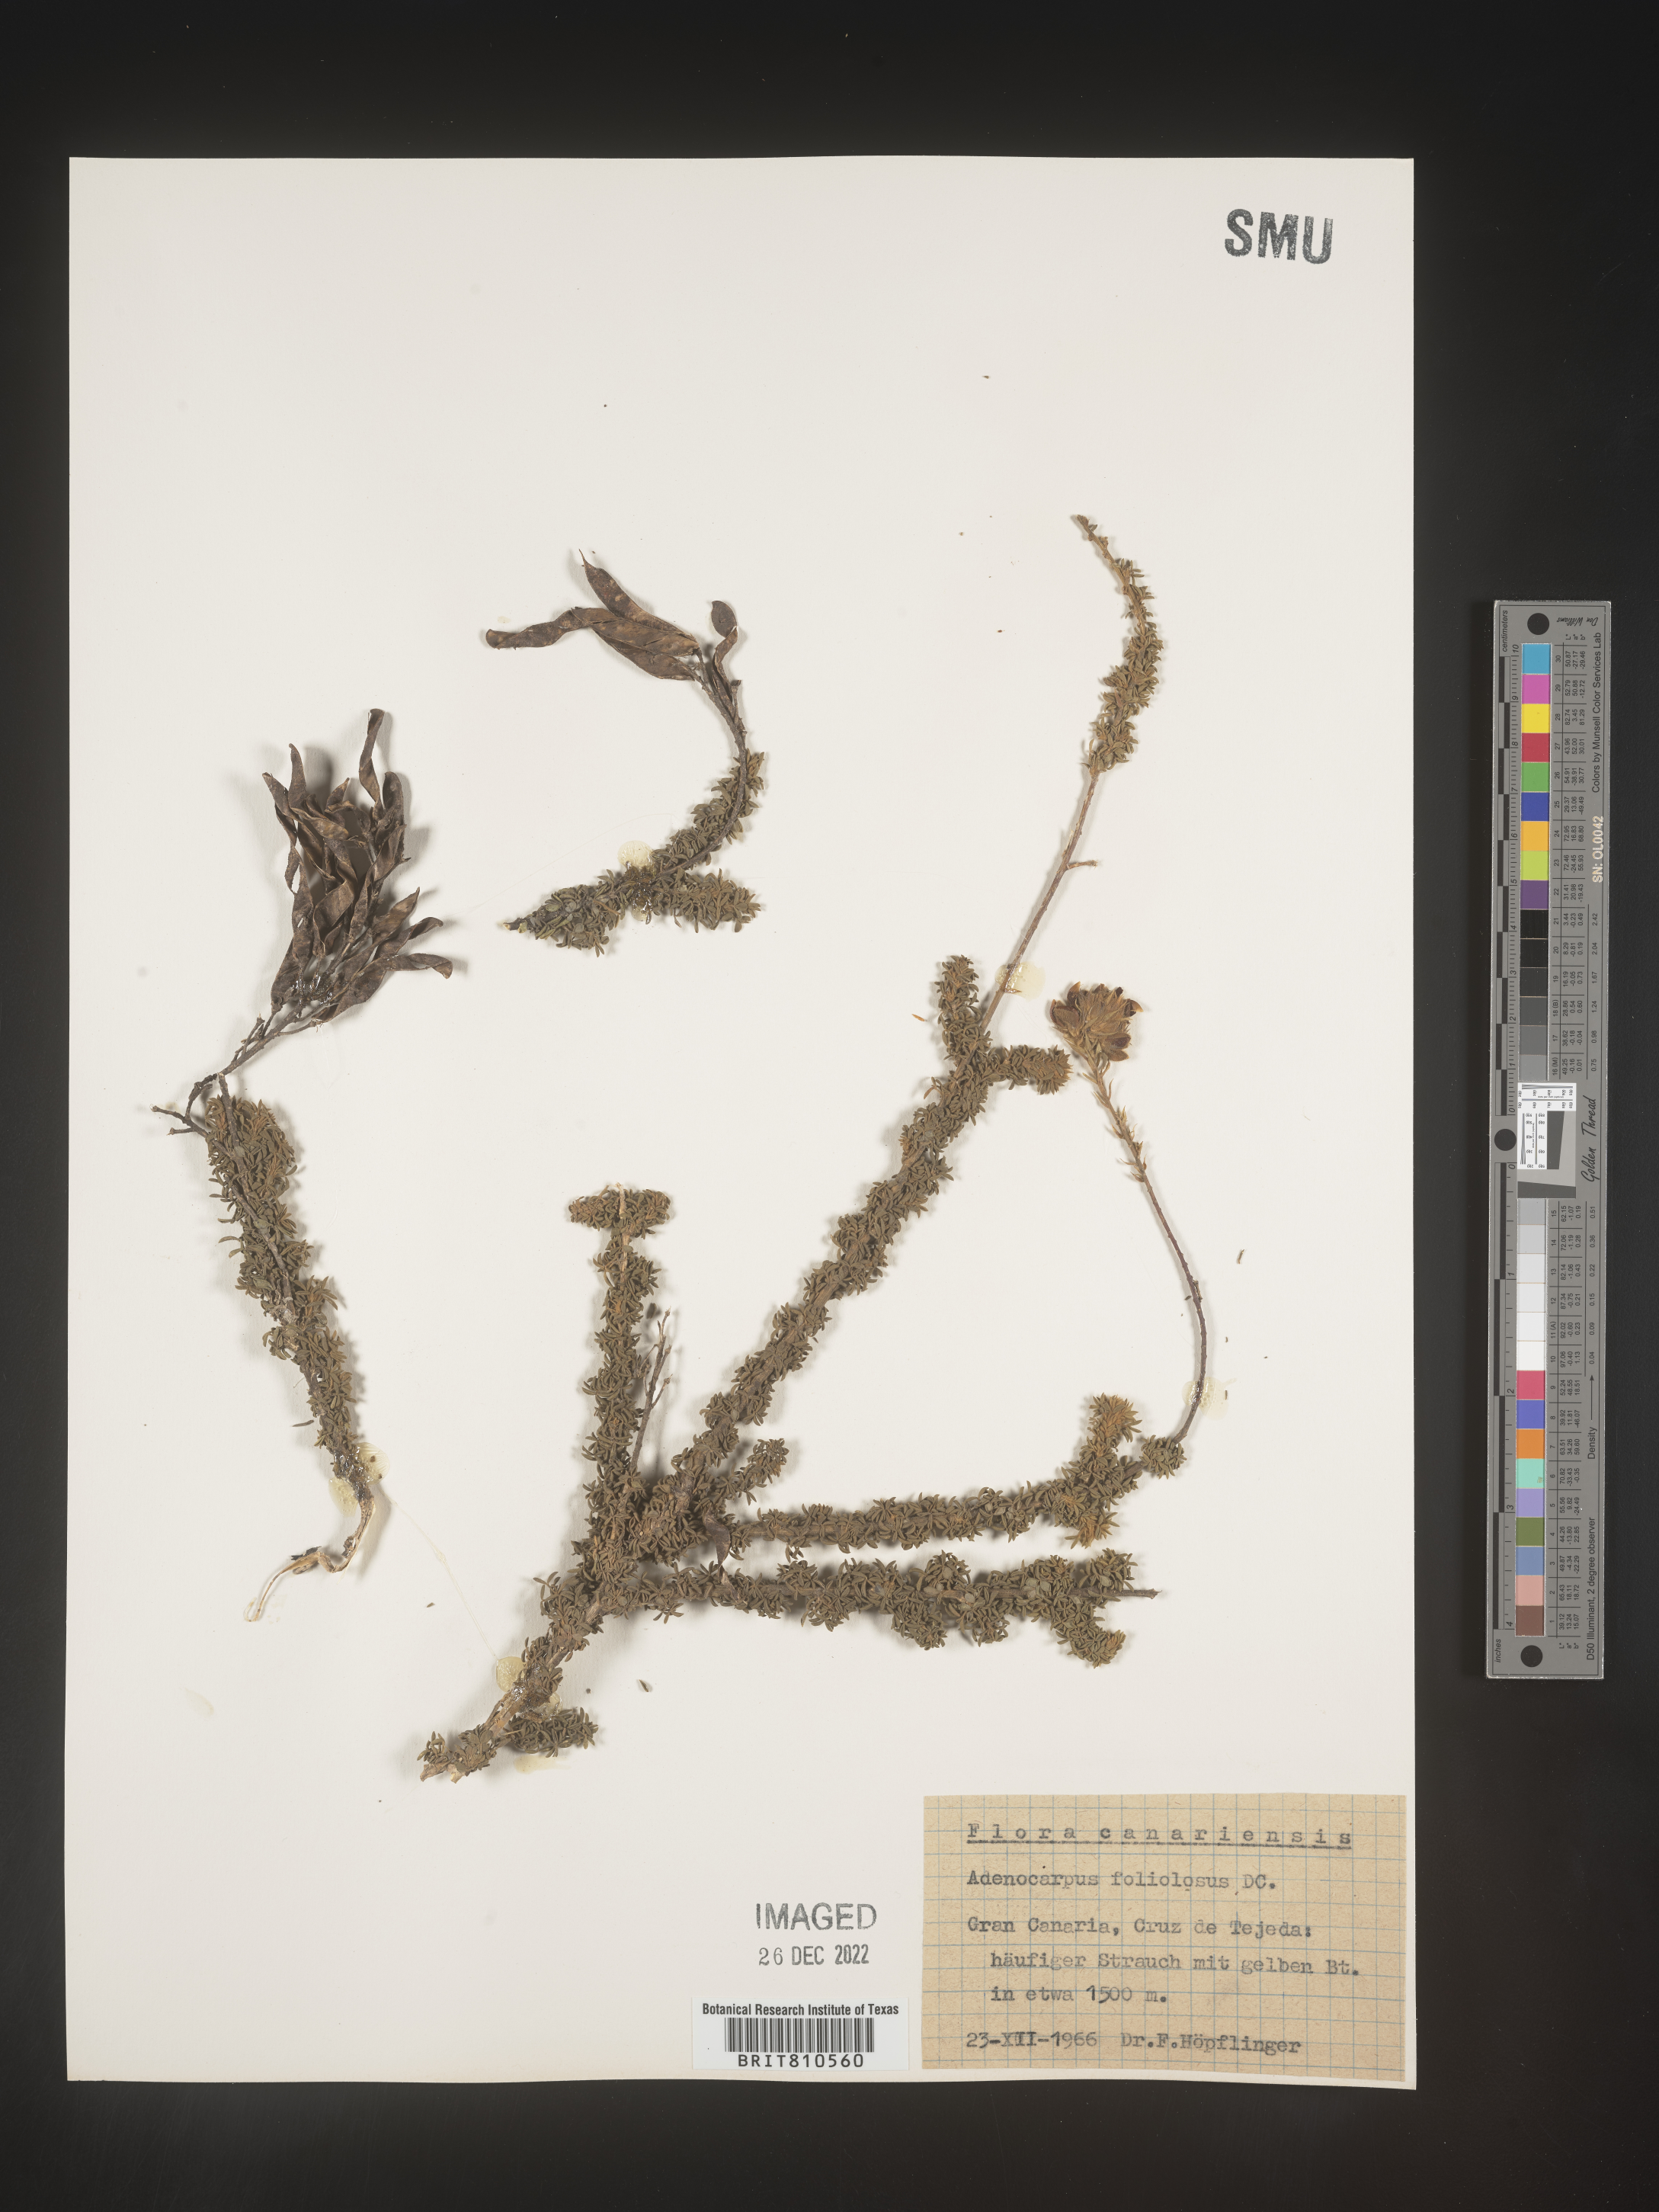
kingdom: Plantae
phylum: Tracheophyta
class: Magnoliopsida
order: Fabales
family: Fabaceae
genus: Adenocarpus
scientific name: Adenocarpus
